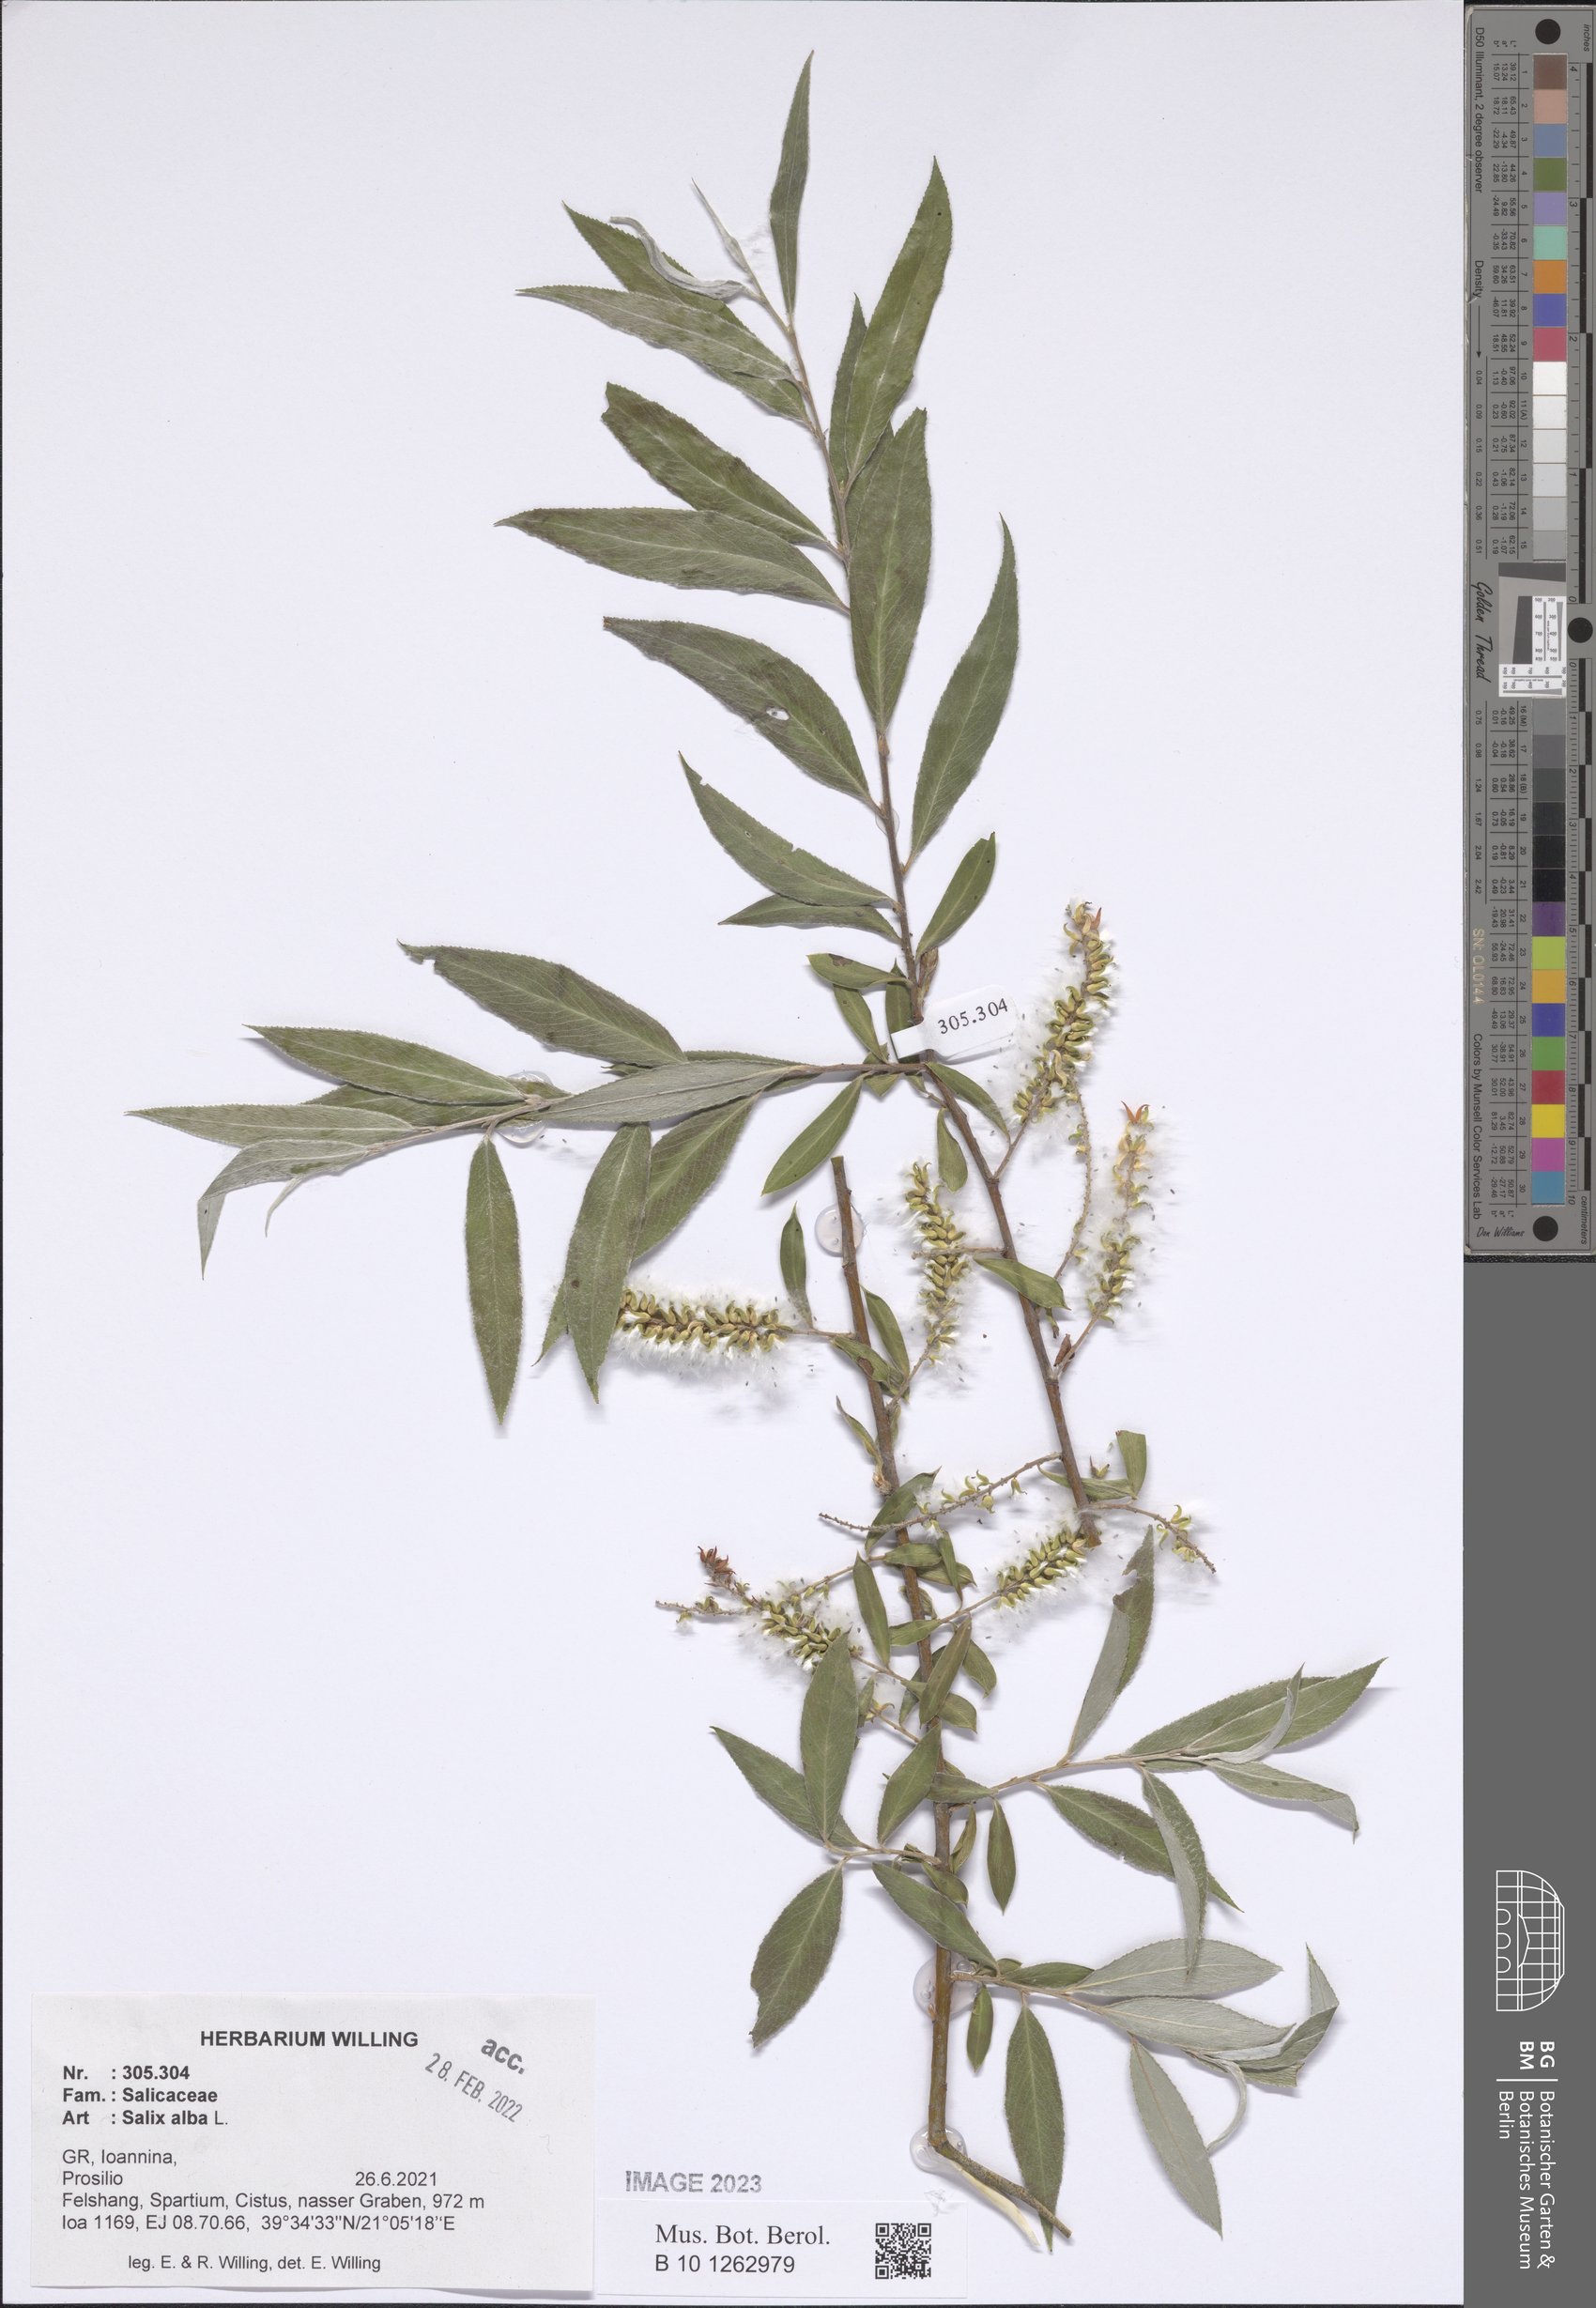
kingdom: Plantae
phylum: Tracheophyta
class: Magnoliopsida
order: Malpighiales
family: Salicaceae
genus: Salix
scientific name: Salix alba
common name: White willow
